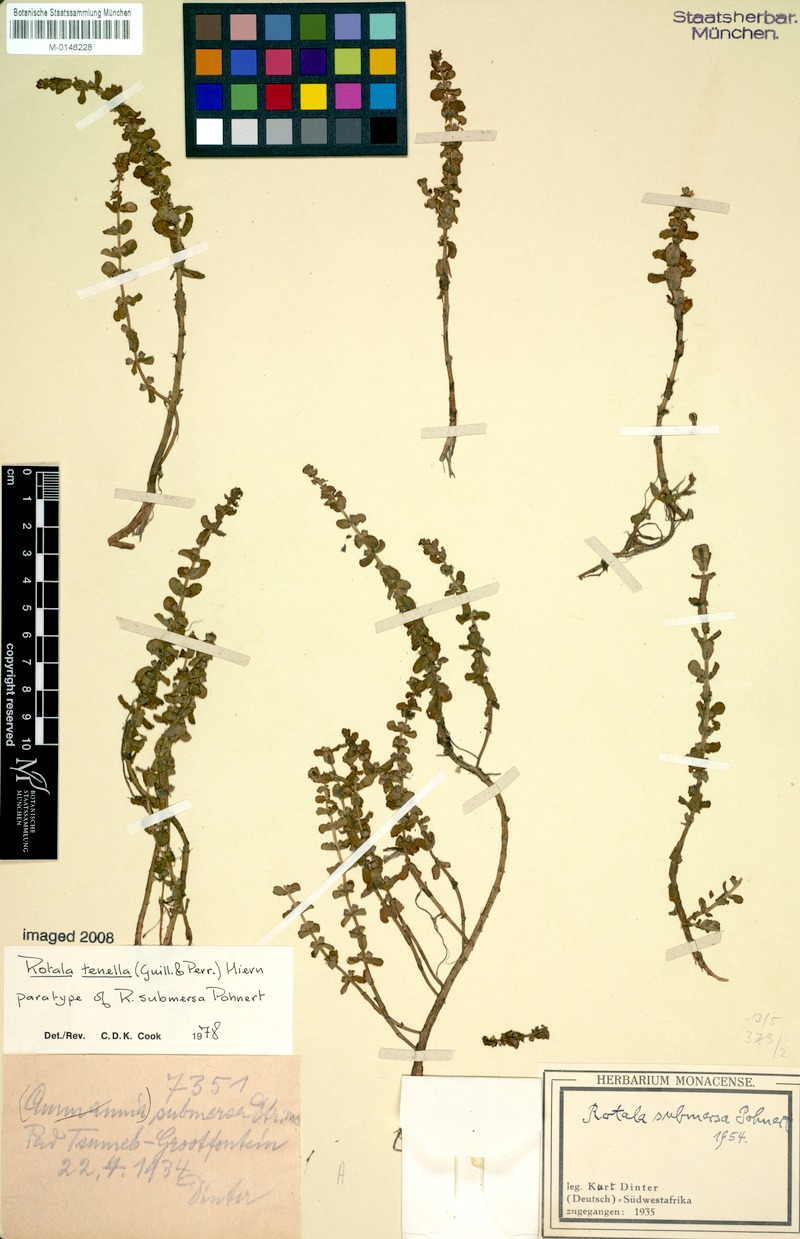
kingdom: Plantae
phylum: Tracheophyta
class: Magnoliopsida
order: Myrtales
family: Lythraceae
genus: Rotala
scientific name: Rotala tenella
